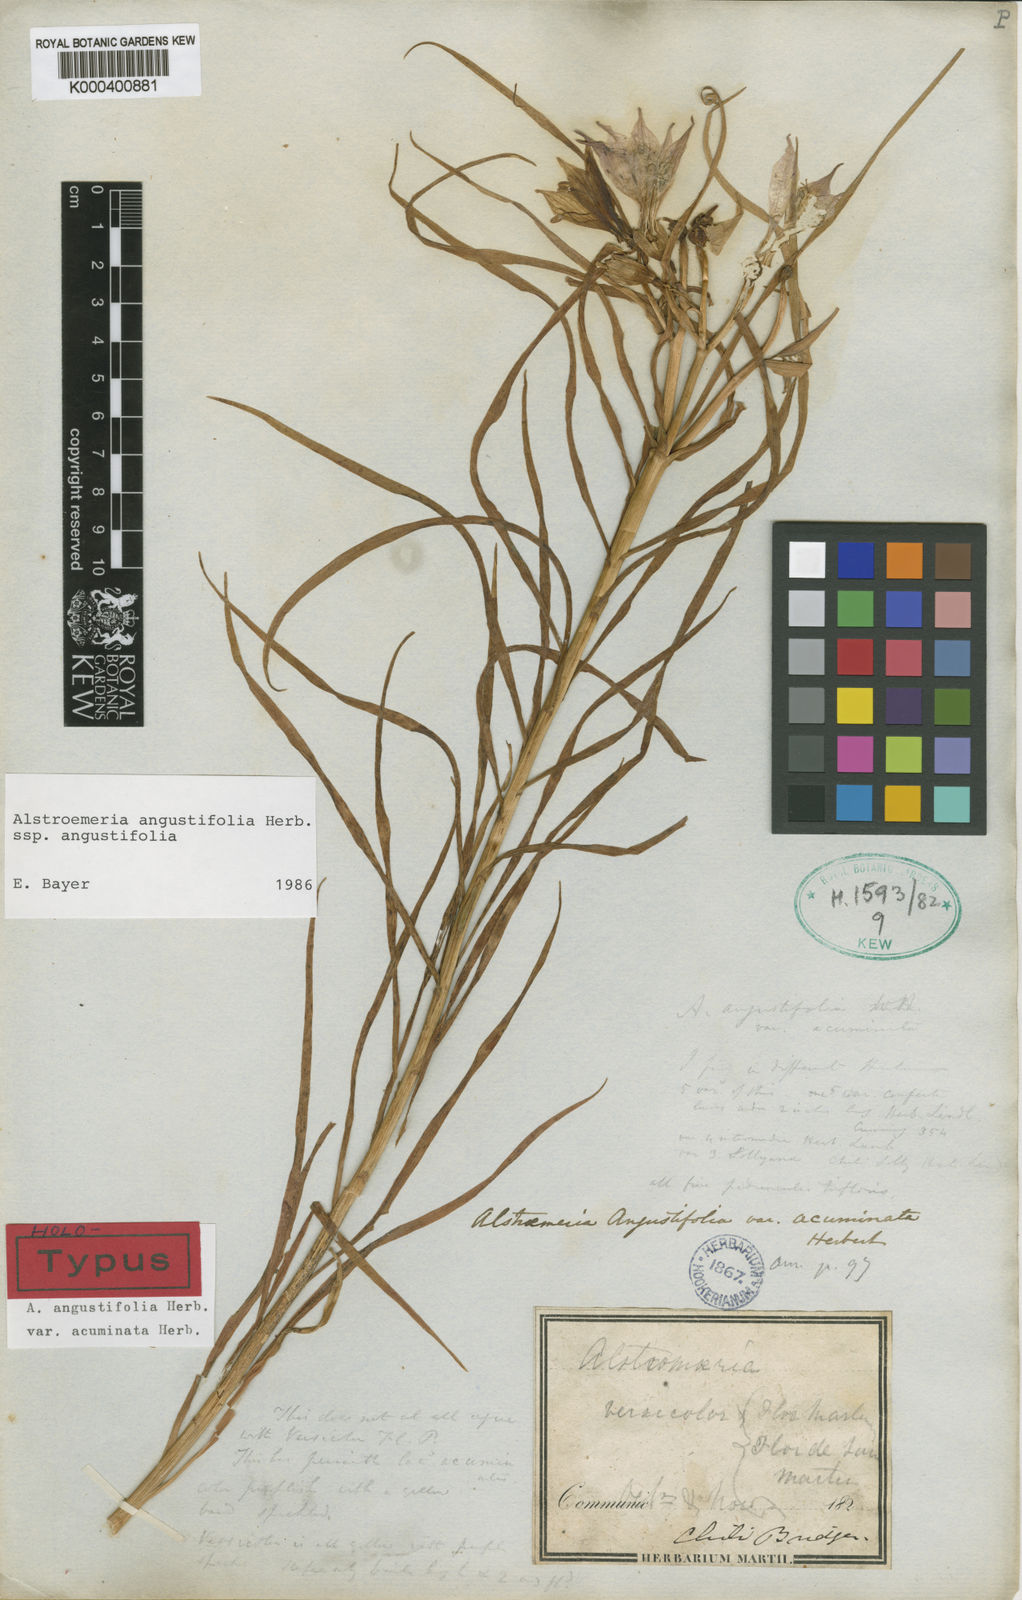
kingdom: Plantae
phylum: Tracheophyta
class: Liliopsida
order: Liliales
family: Alstroemeriaceae
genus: Alstroemeria
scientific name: Alstroemeria angustifolia
